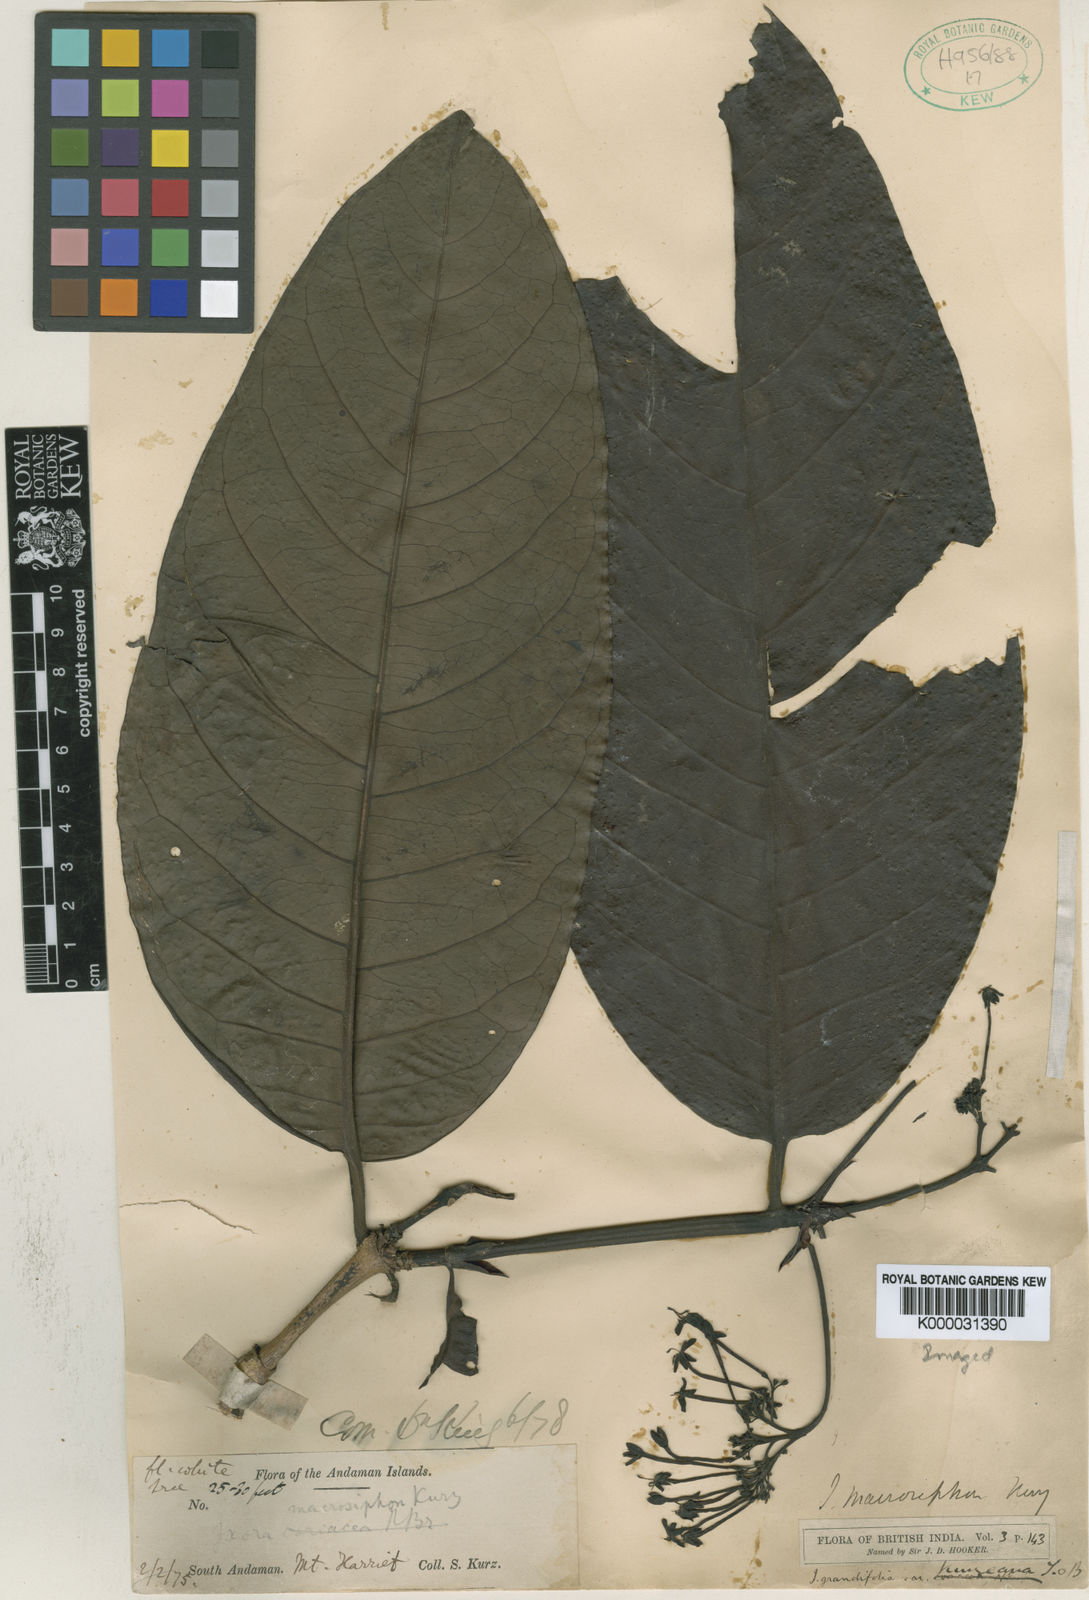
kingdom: Plantae
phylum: Tracheophyta
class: Magnoliopsida
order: Gentianales
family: Rubiaceae
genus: Ixora
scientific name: Ixora macrosiphon
